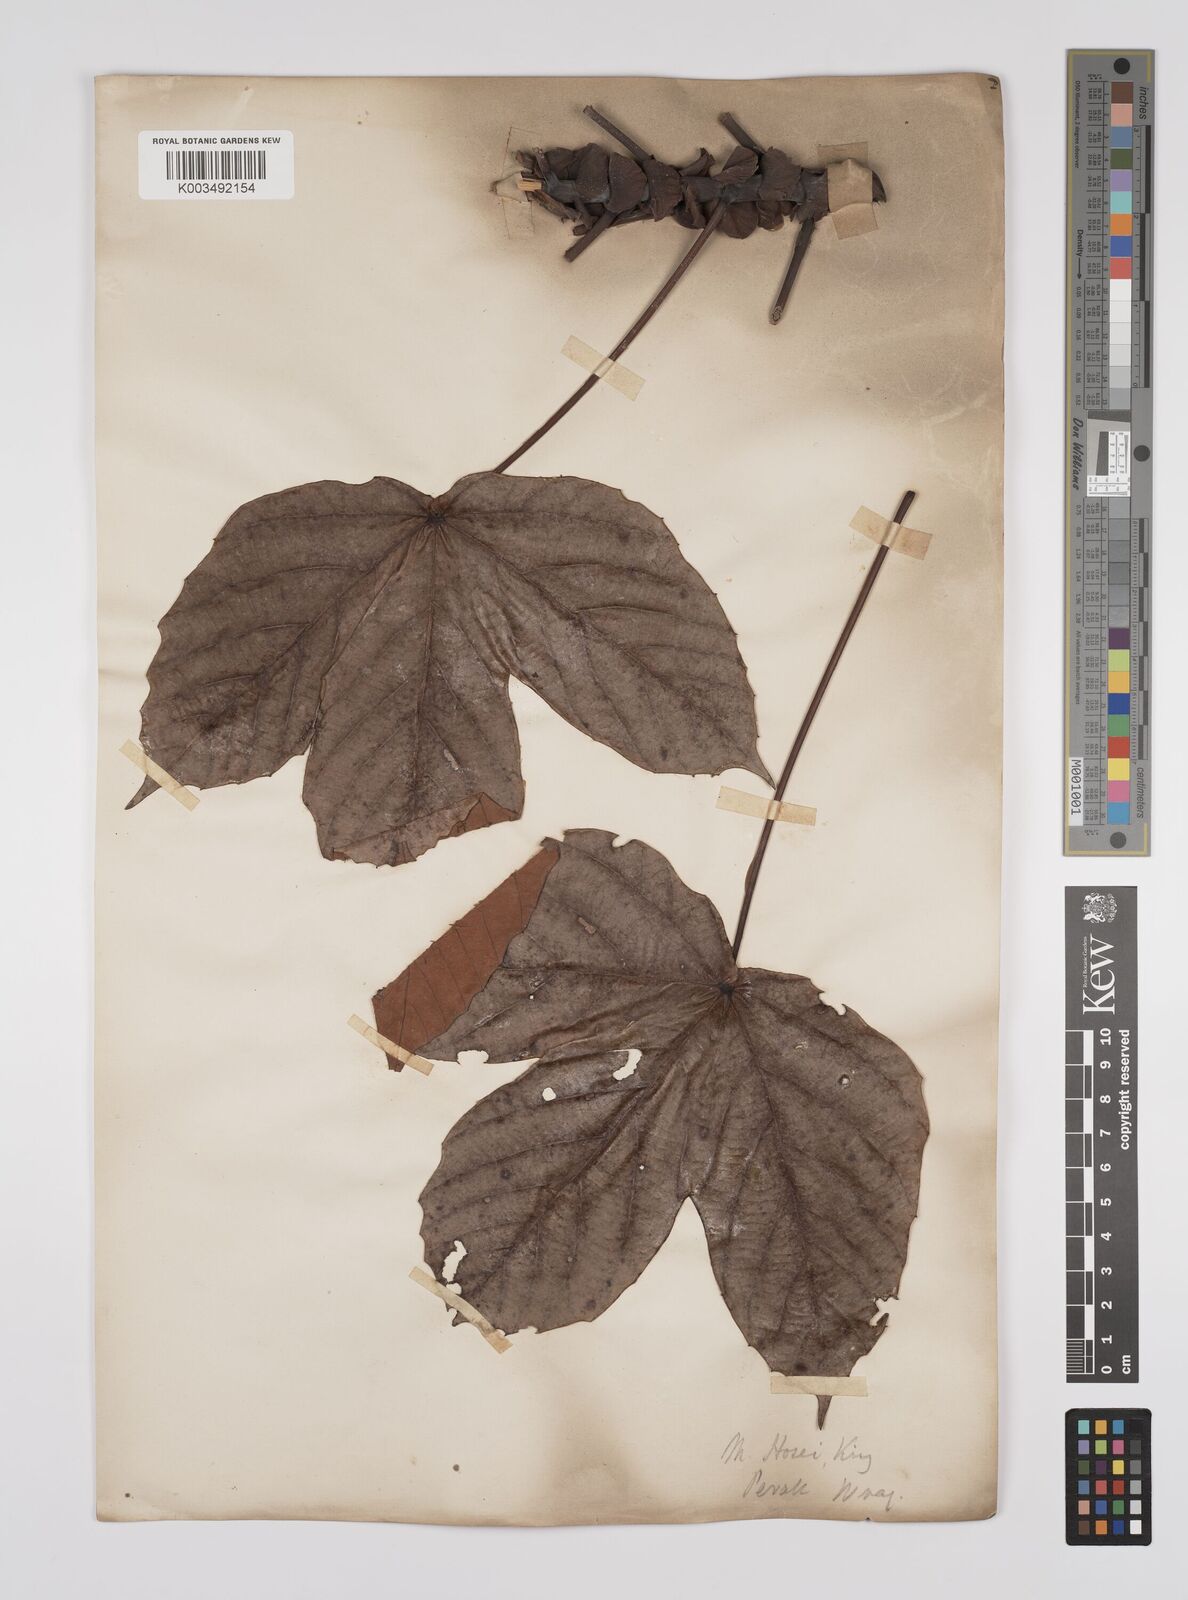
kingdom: Plantae
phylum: Tracheophyta
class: Magnoliopsida
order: Malpighiales
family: Euphorbiaceae
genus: Macaranga
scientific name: Macaranga hosei
